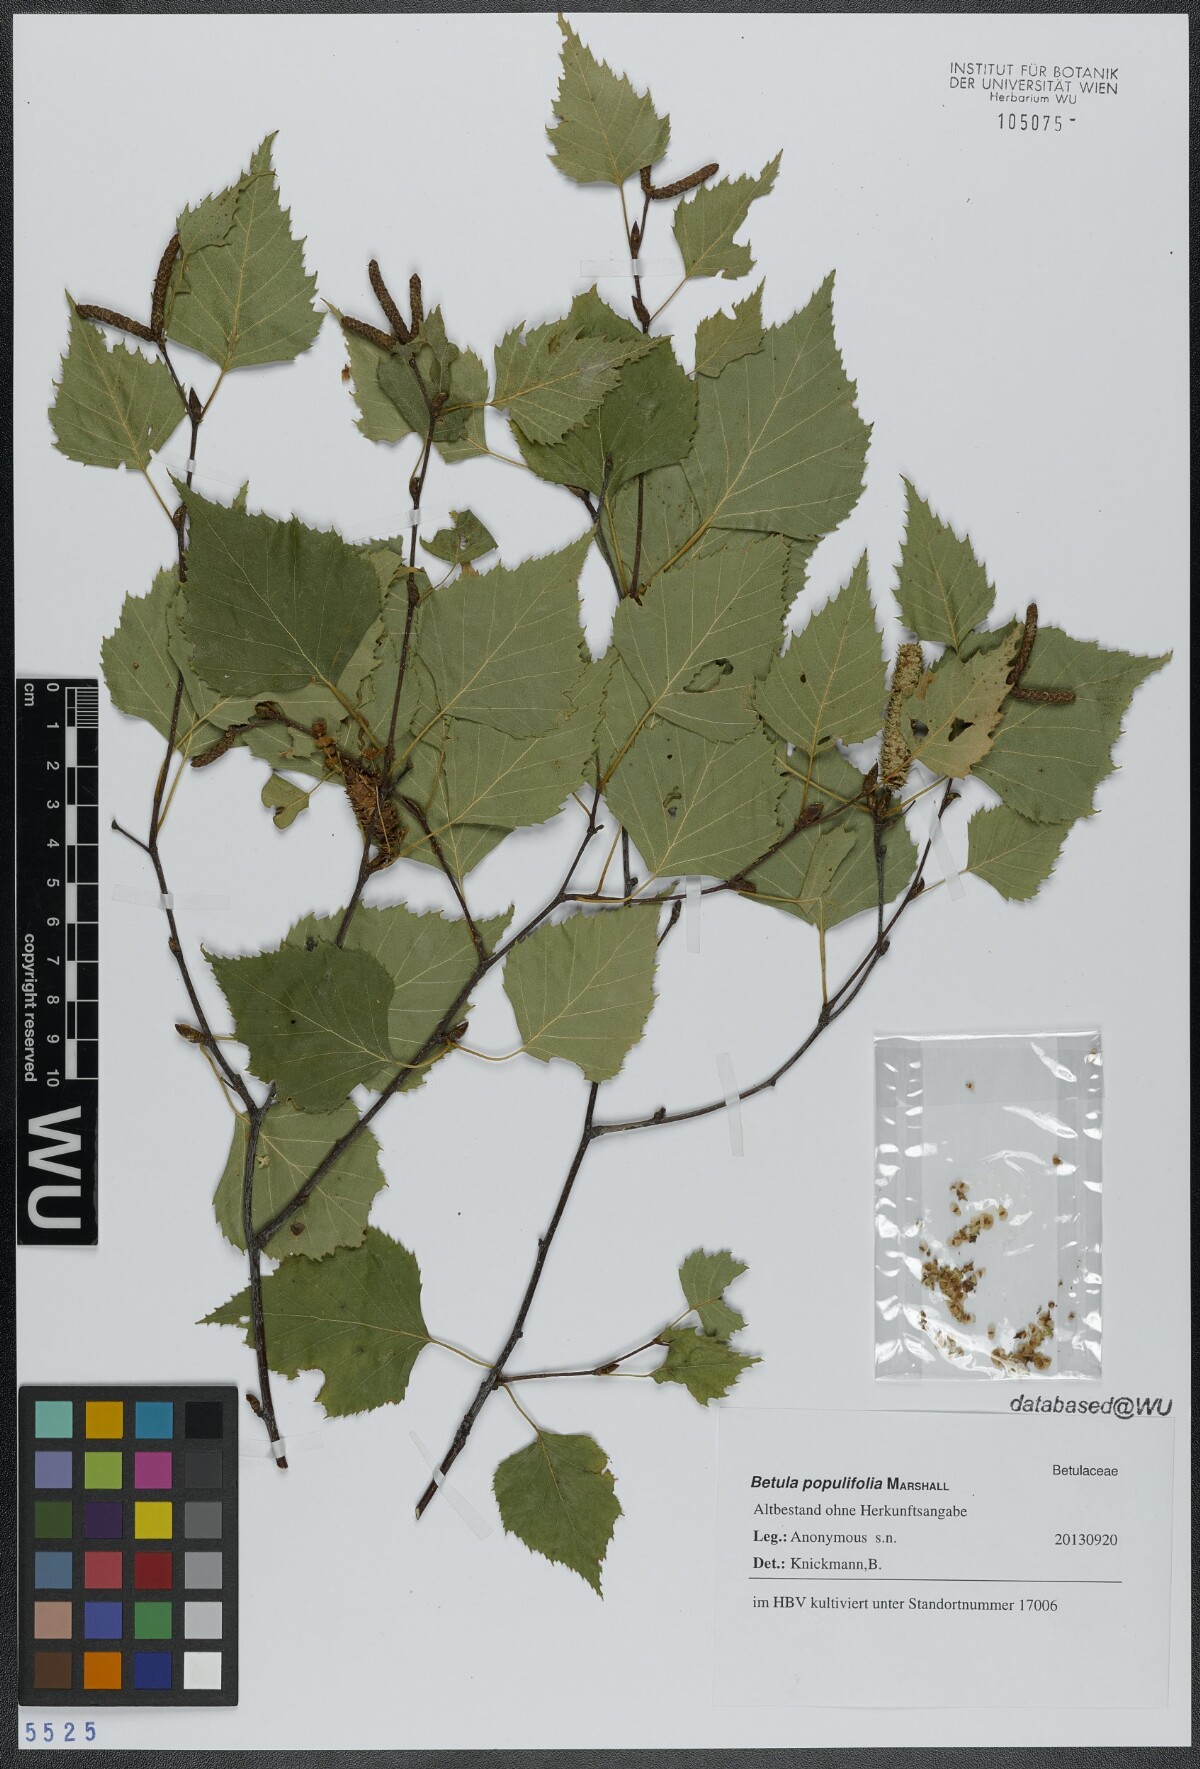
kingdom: Plantae
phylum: Tracheophyta
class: Magnoliopsida
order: Fagales
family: Betulaceae
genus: Betula
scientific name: Betula populifolia
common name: Fire birch
